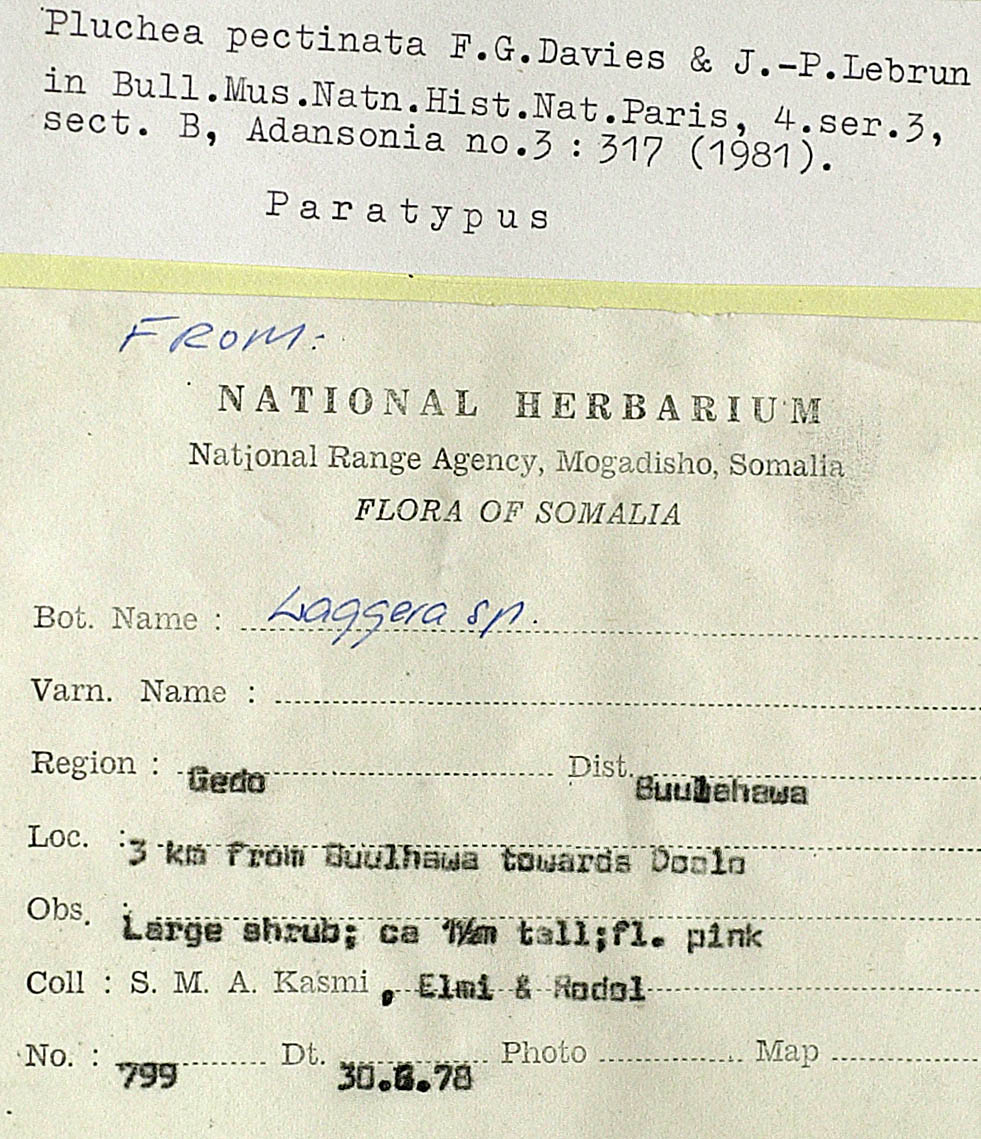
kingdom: Plantae
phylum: Tracheophyta
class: Magnoliopsida
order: Asterales
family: Asteraceae
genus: Pluchea
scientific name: Pluchea somaliensis
